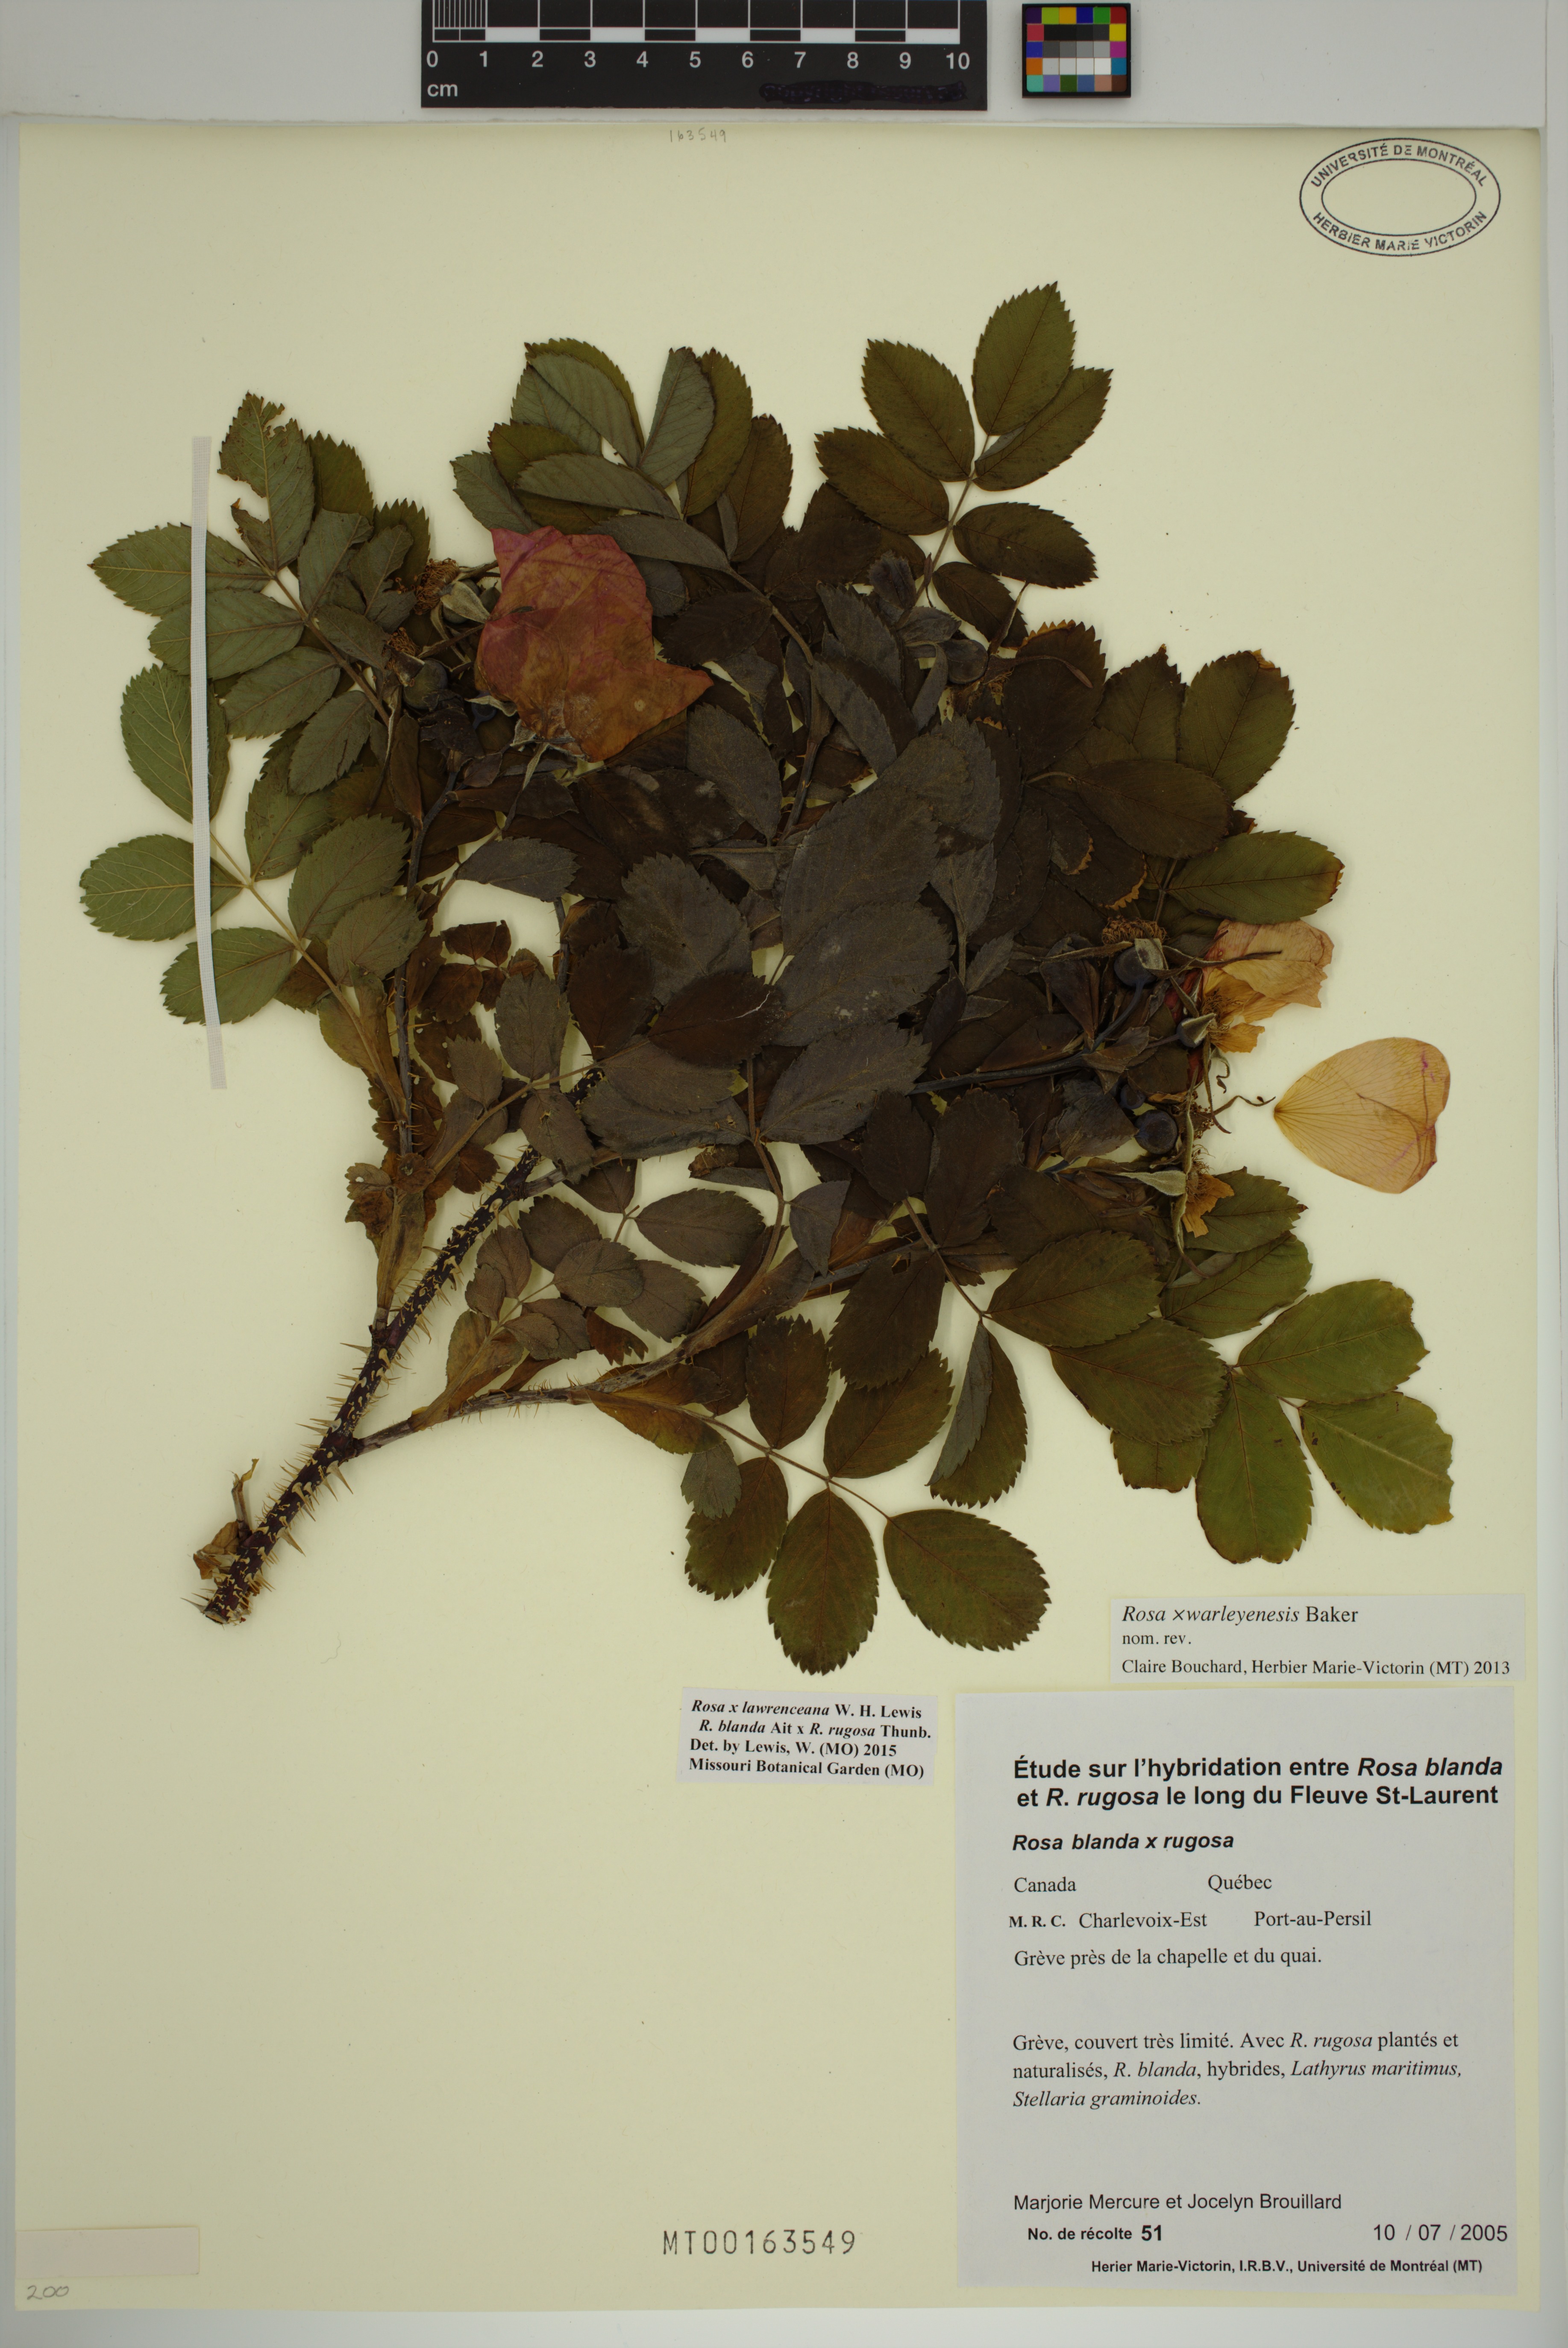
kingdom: Plantae
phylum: Tracheophyta
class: Magnoliopsida
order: Rosales
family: Rosaceae
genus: Rosa
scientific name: Rosa chinensis
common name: China rose
